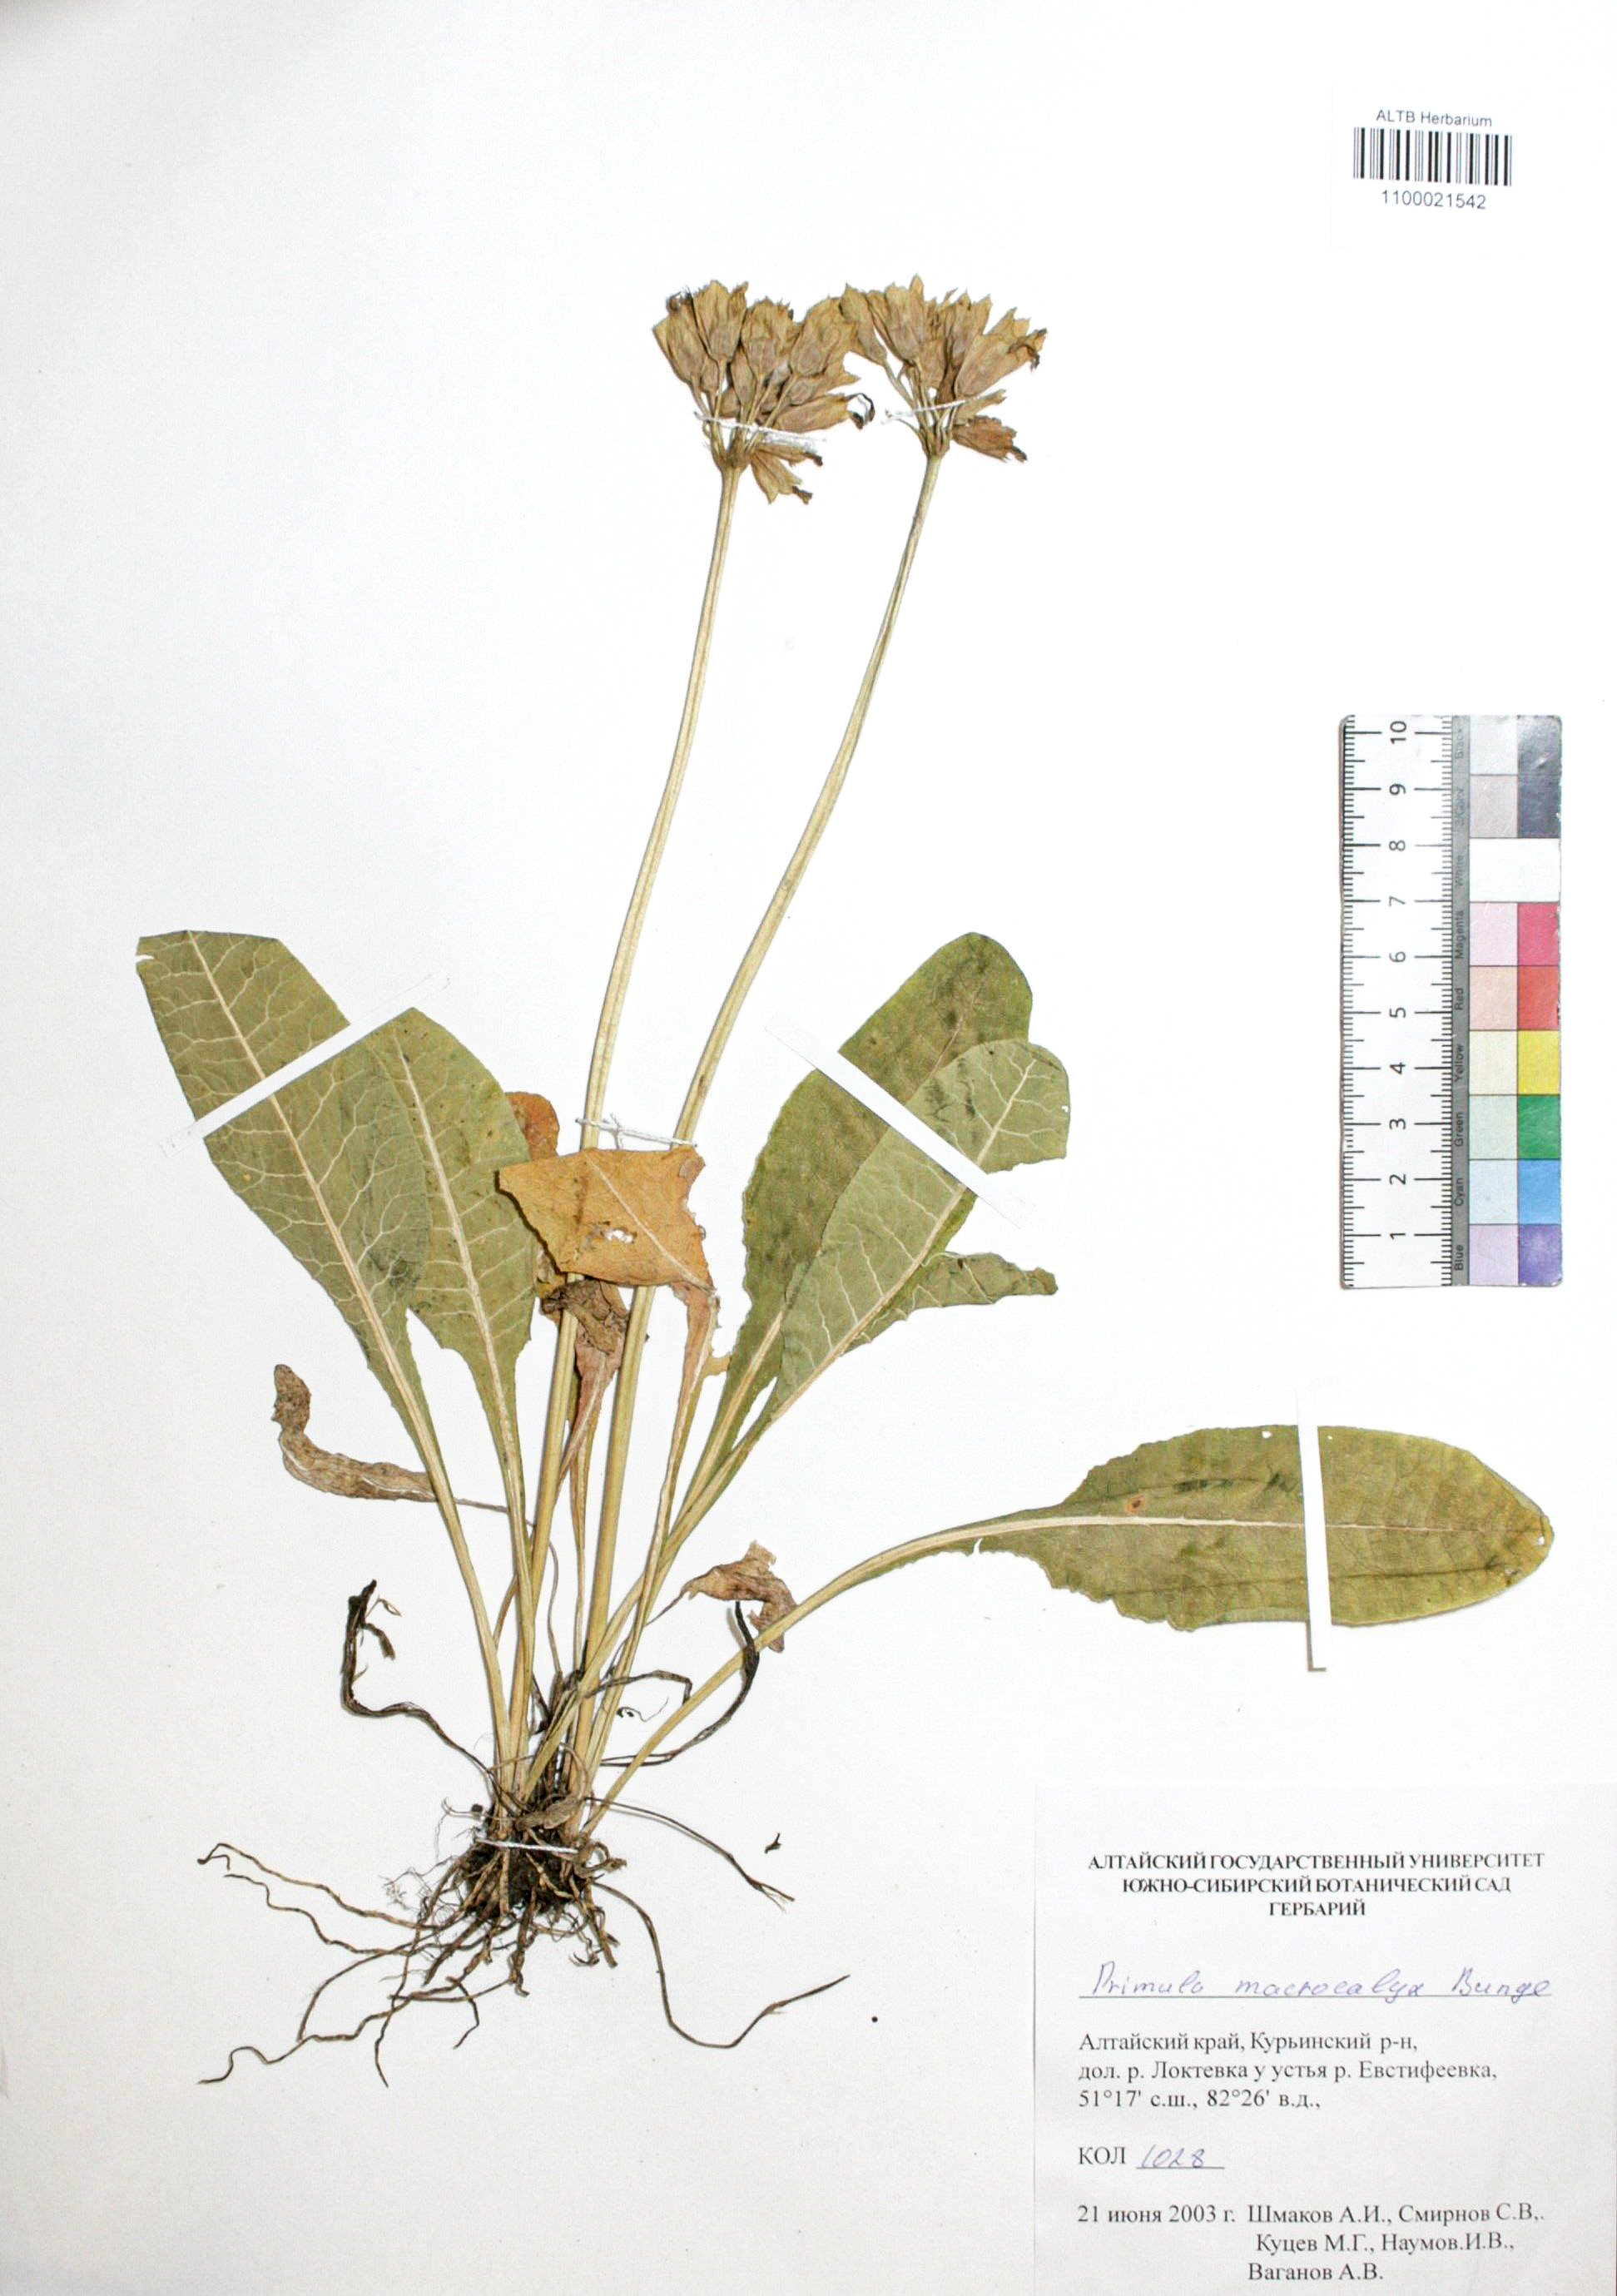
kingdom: Plantae
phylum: Tracheophyta
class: Magnoliopsida
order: Ericales
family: Primulaceae
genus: Primula
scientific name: Primula veris
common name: Cowslip
